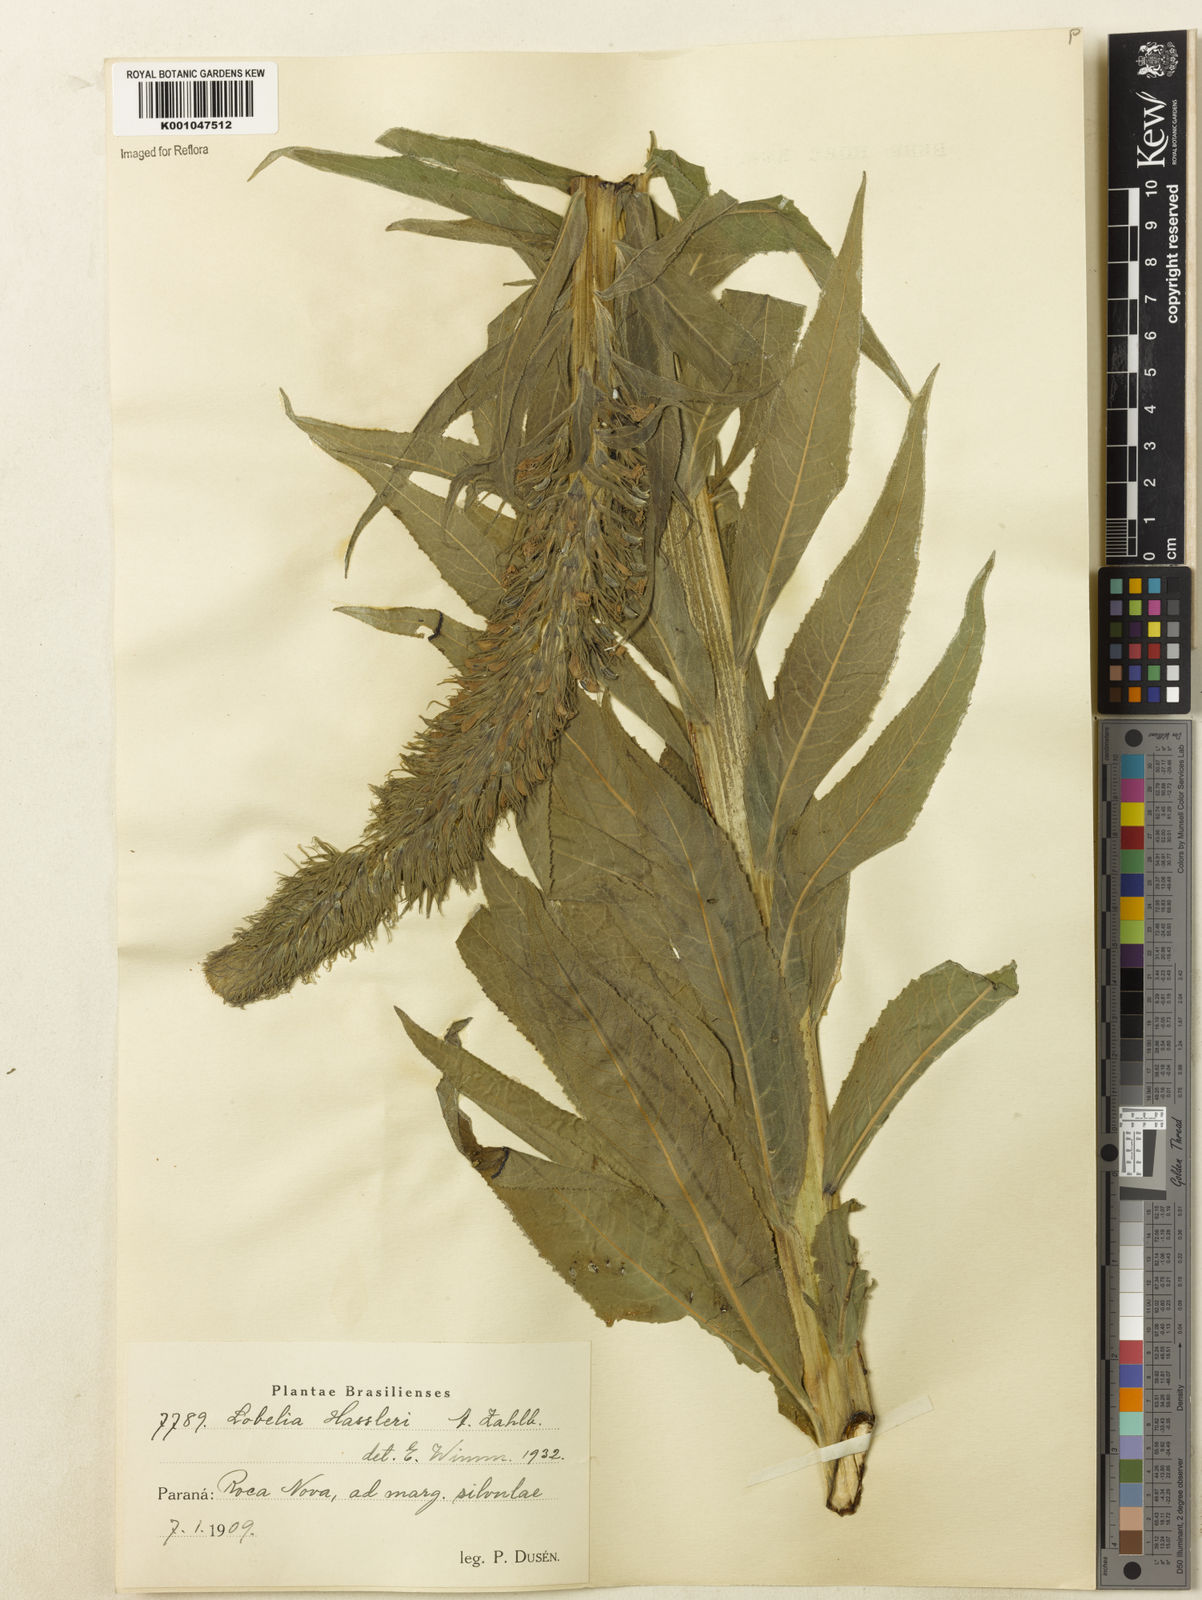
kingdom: Plantae
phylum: Tracheophyta
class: Magnoliopsida
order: Asterales
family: Campanulaceae
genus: Lobelia
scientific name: Lobelia hassleri
